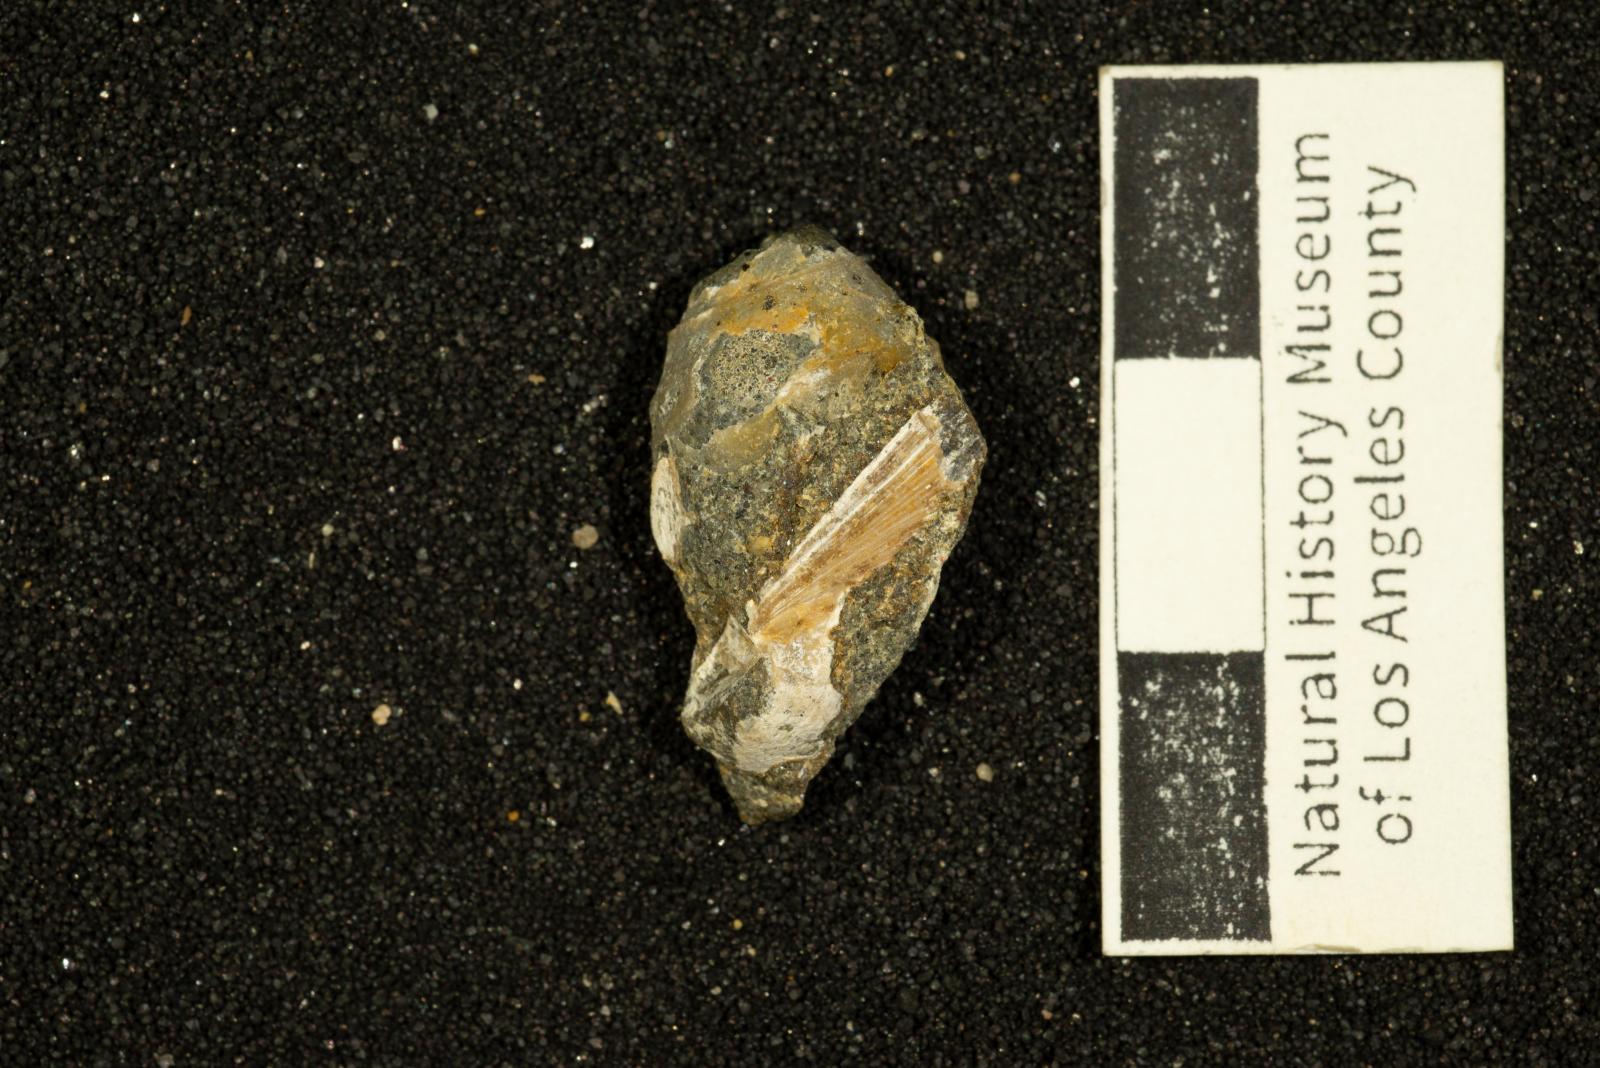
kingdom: Animalia
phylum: Mollusca
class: Gastropoda
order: Neogastropoda
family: Perissityidae
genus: Pyropsis
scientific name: Pyropsis
